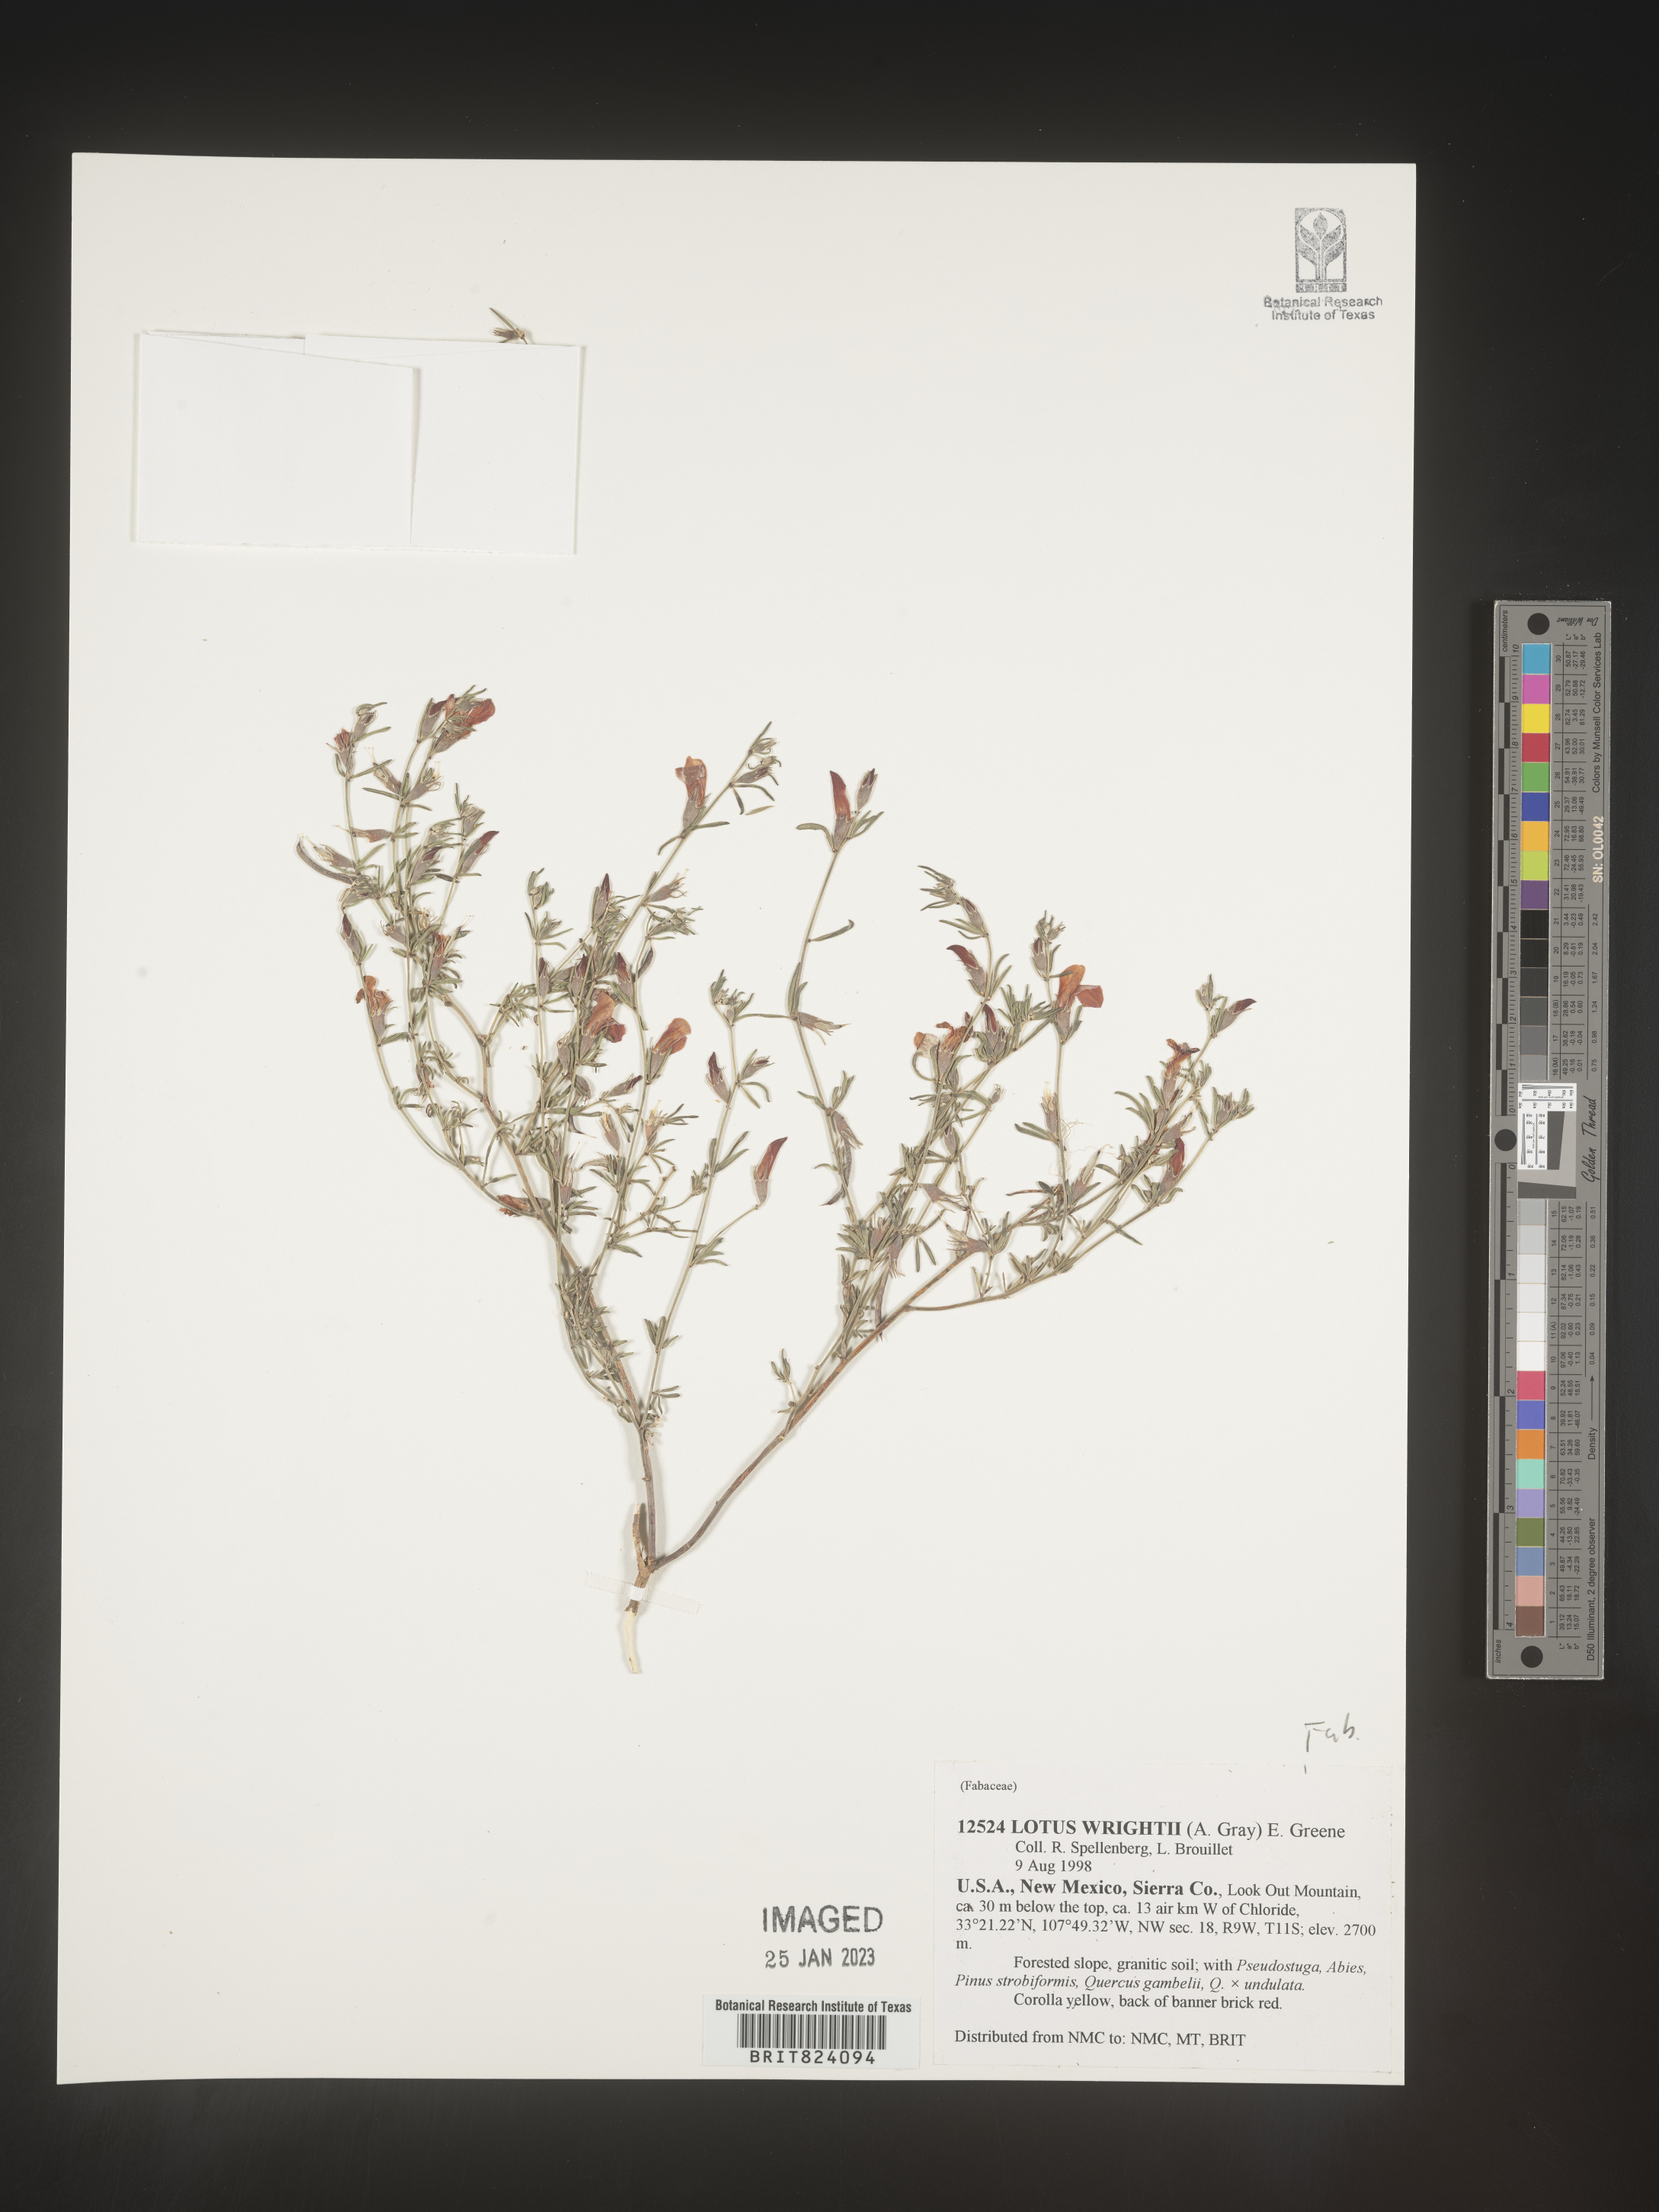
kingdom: Plantae
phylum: Tracheophyta
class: Magnoliopsida
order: Fabales
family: Fabaceae
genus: Acmispon
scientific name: Acmispon wrightii
